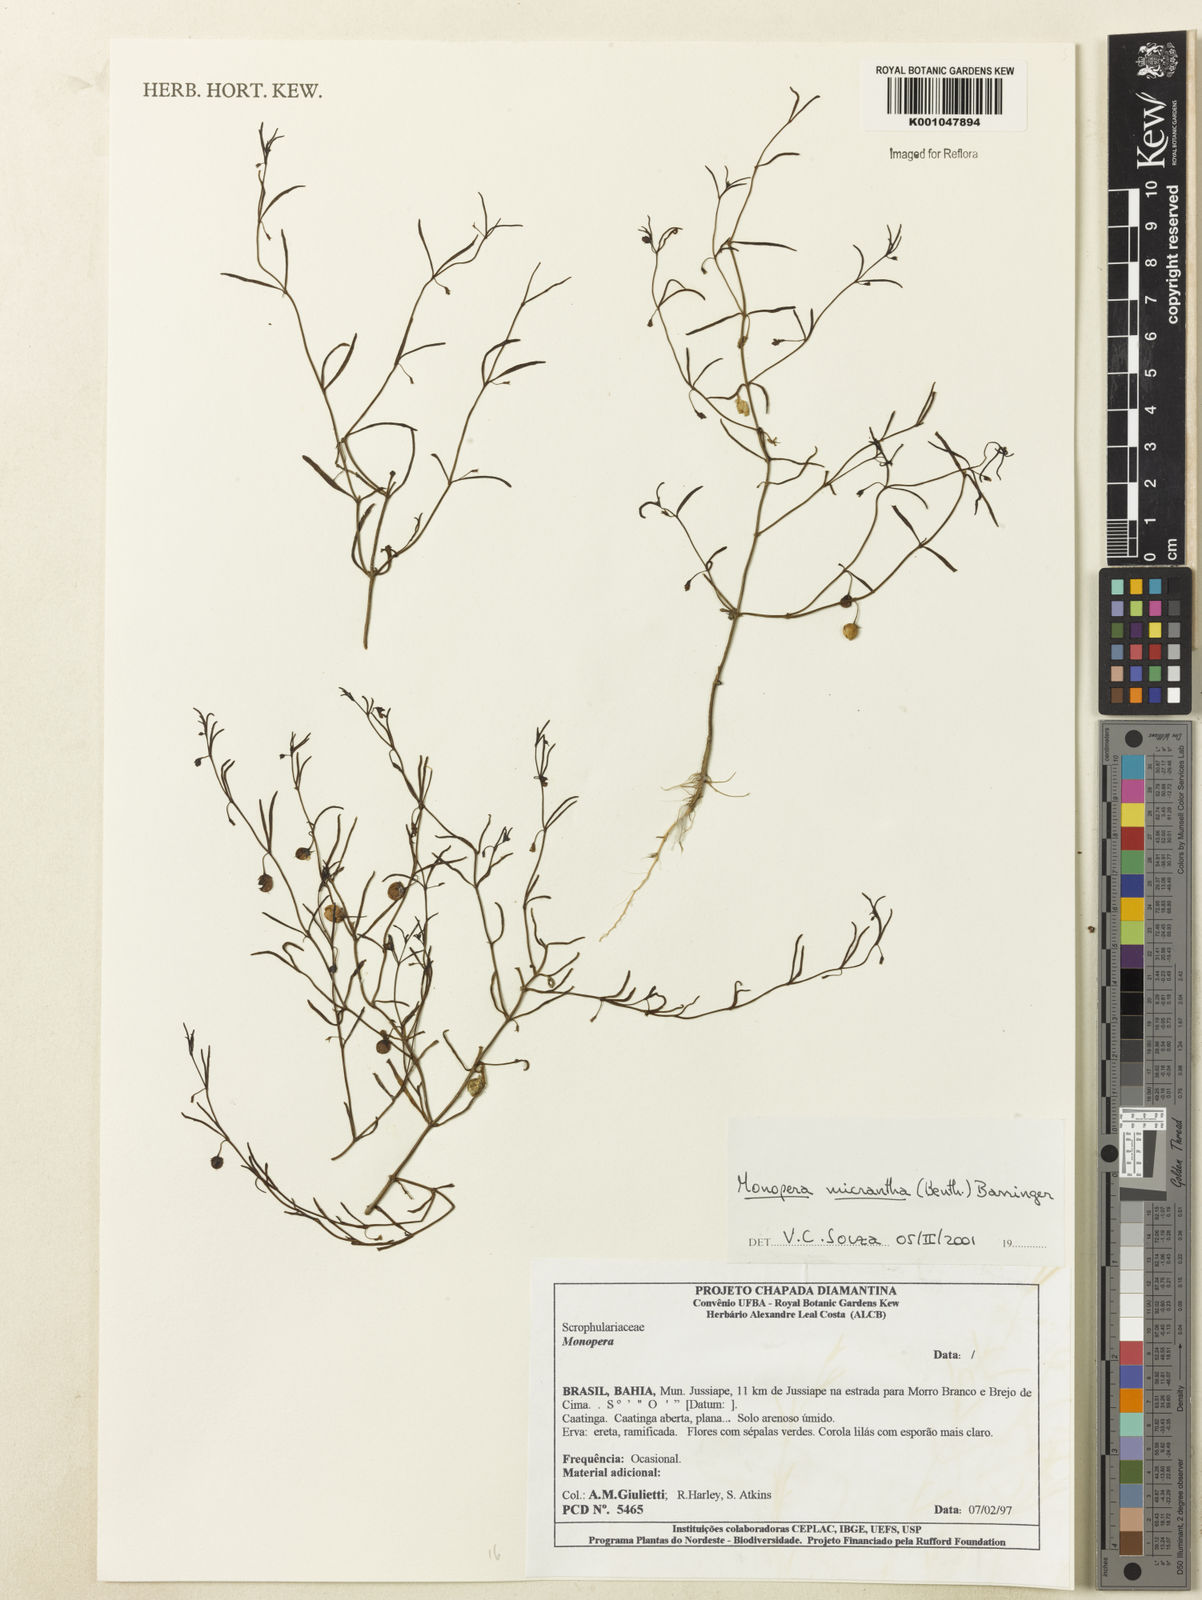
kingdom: Plantae
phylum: Tracheophyta
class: Magnoliopsida
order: Lamiales
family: Plantaginaceae
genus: Angelonia
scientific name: Angelonia micrantha
